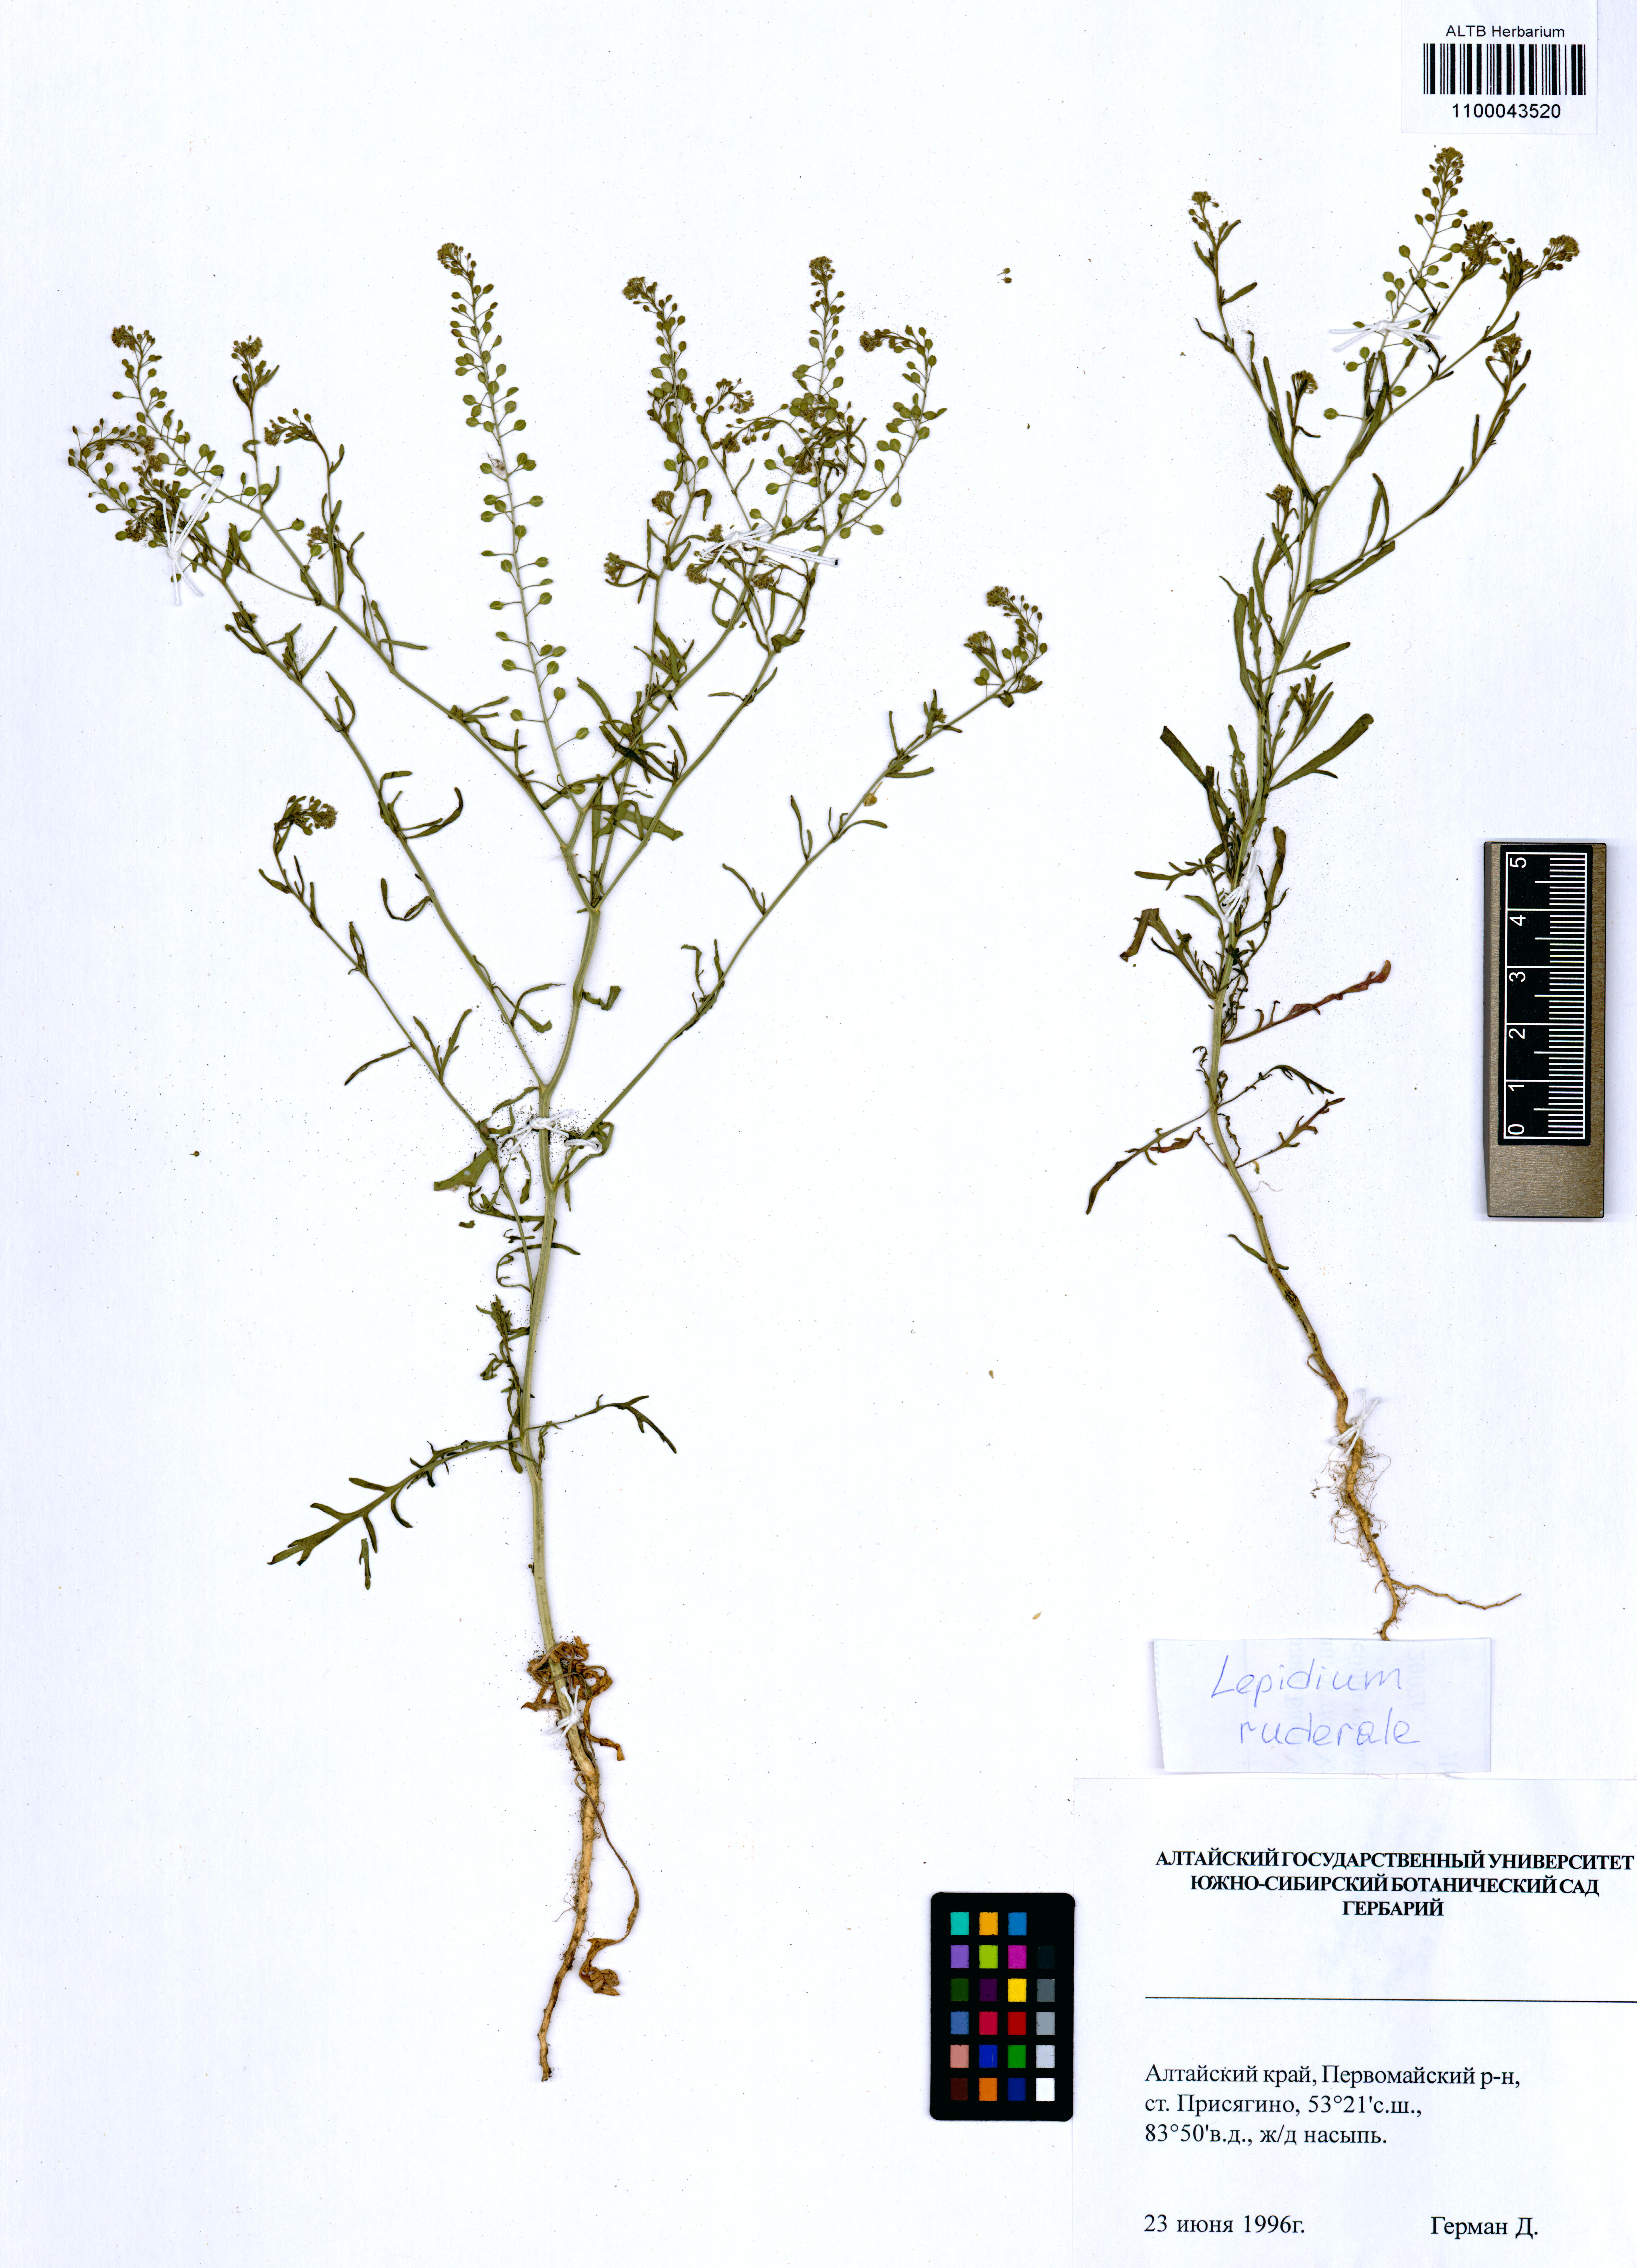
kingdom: Plantae
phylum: Tracheophyta
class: Magnoliopsida
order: Brassicales
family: Brassicaceae
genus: Lepidium
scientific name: Lepidium ruderale
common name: Narrow-leaved pepperwort
